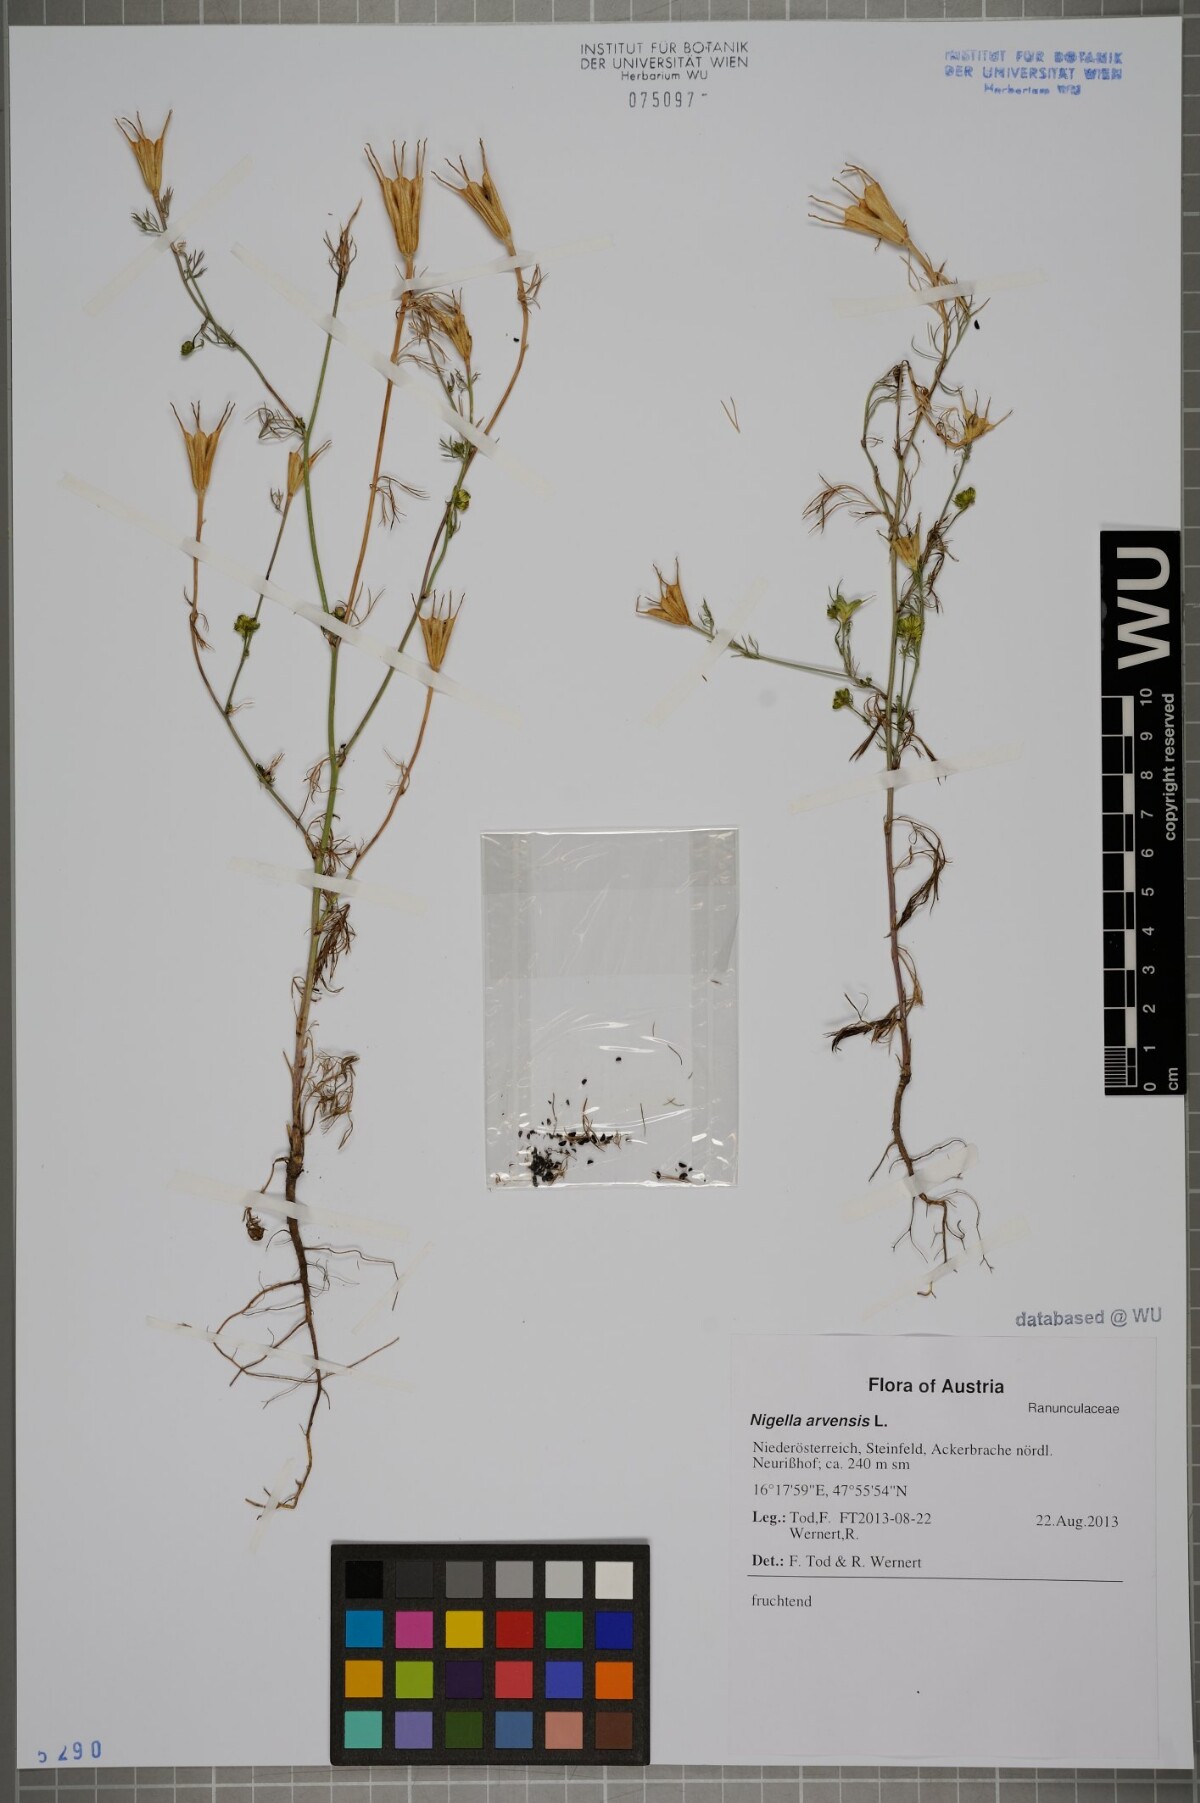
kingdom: Plantae
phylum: Tracheophyta
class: Magnoliopsida
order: Ranunculales
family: Ranunculaceae
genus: Nigella
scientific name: Nigella arvensis
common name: Wild fennel-flower
